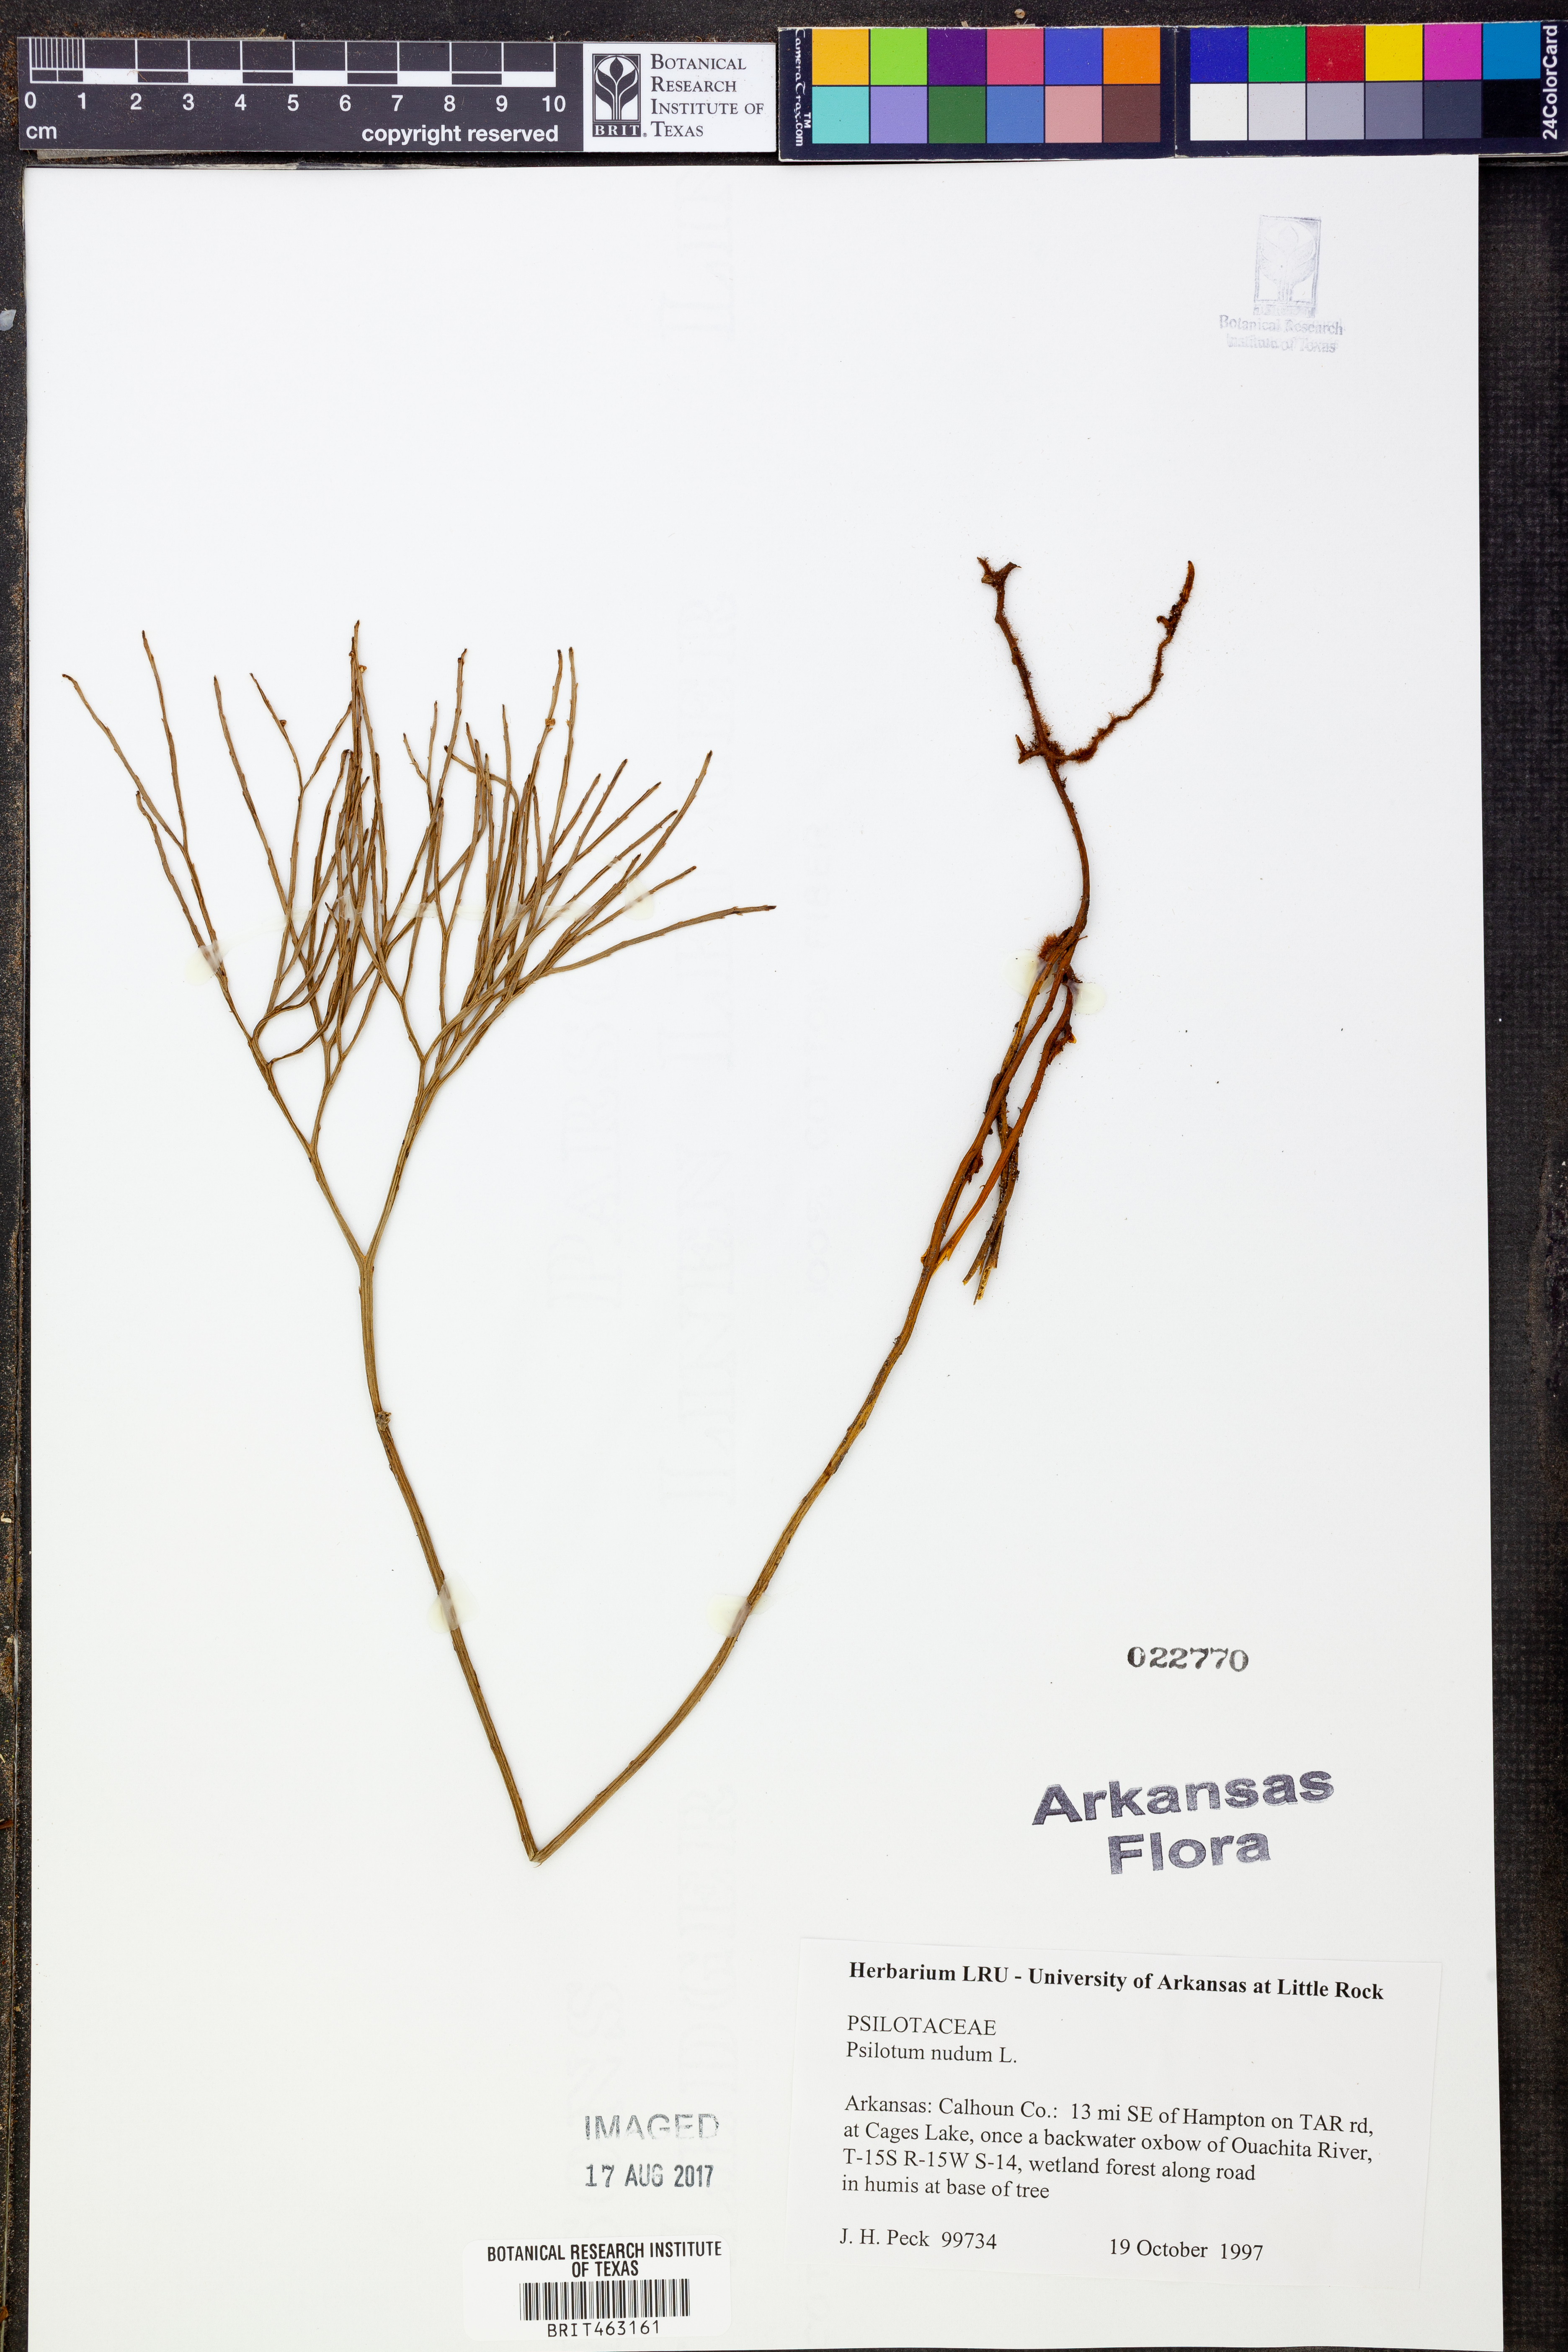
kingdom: Plantae
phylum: Tracheophyta
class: Polypodiopsida
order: Psilotales
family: Psilotaceae
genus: Psilotum
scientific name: Psilotum nudum
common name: Skeleton fork fern
